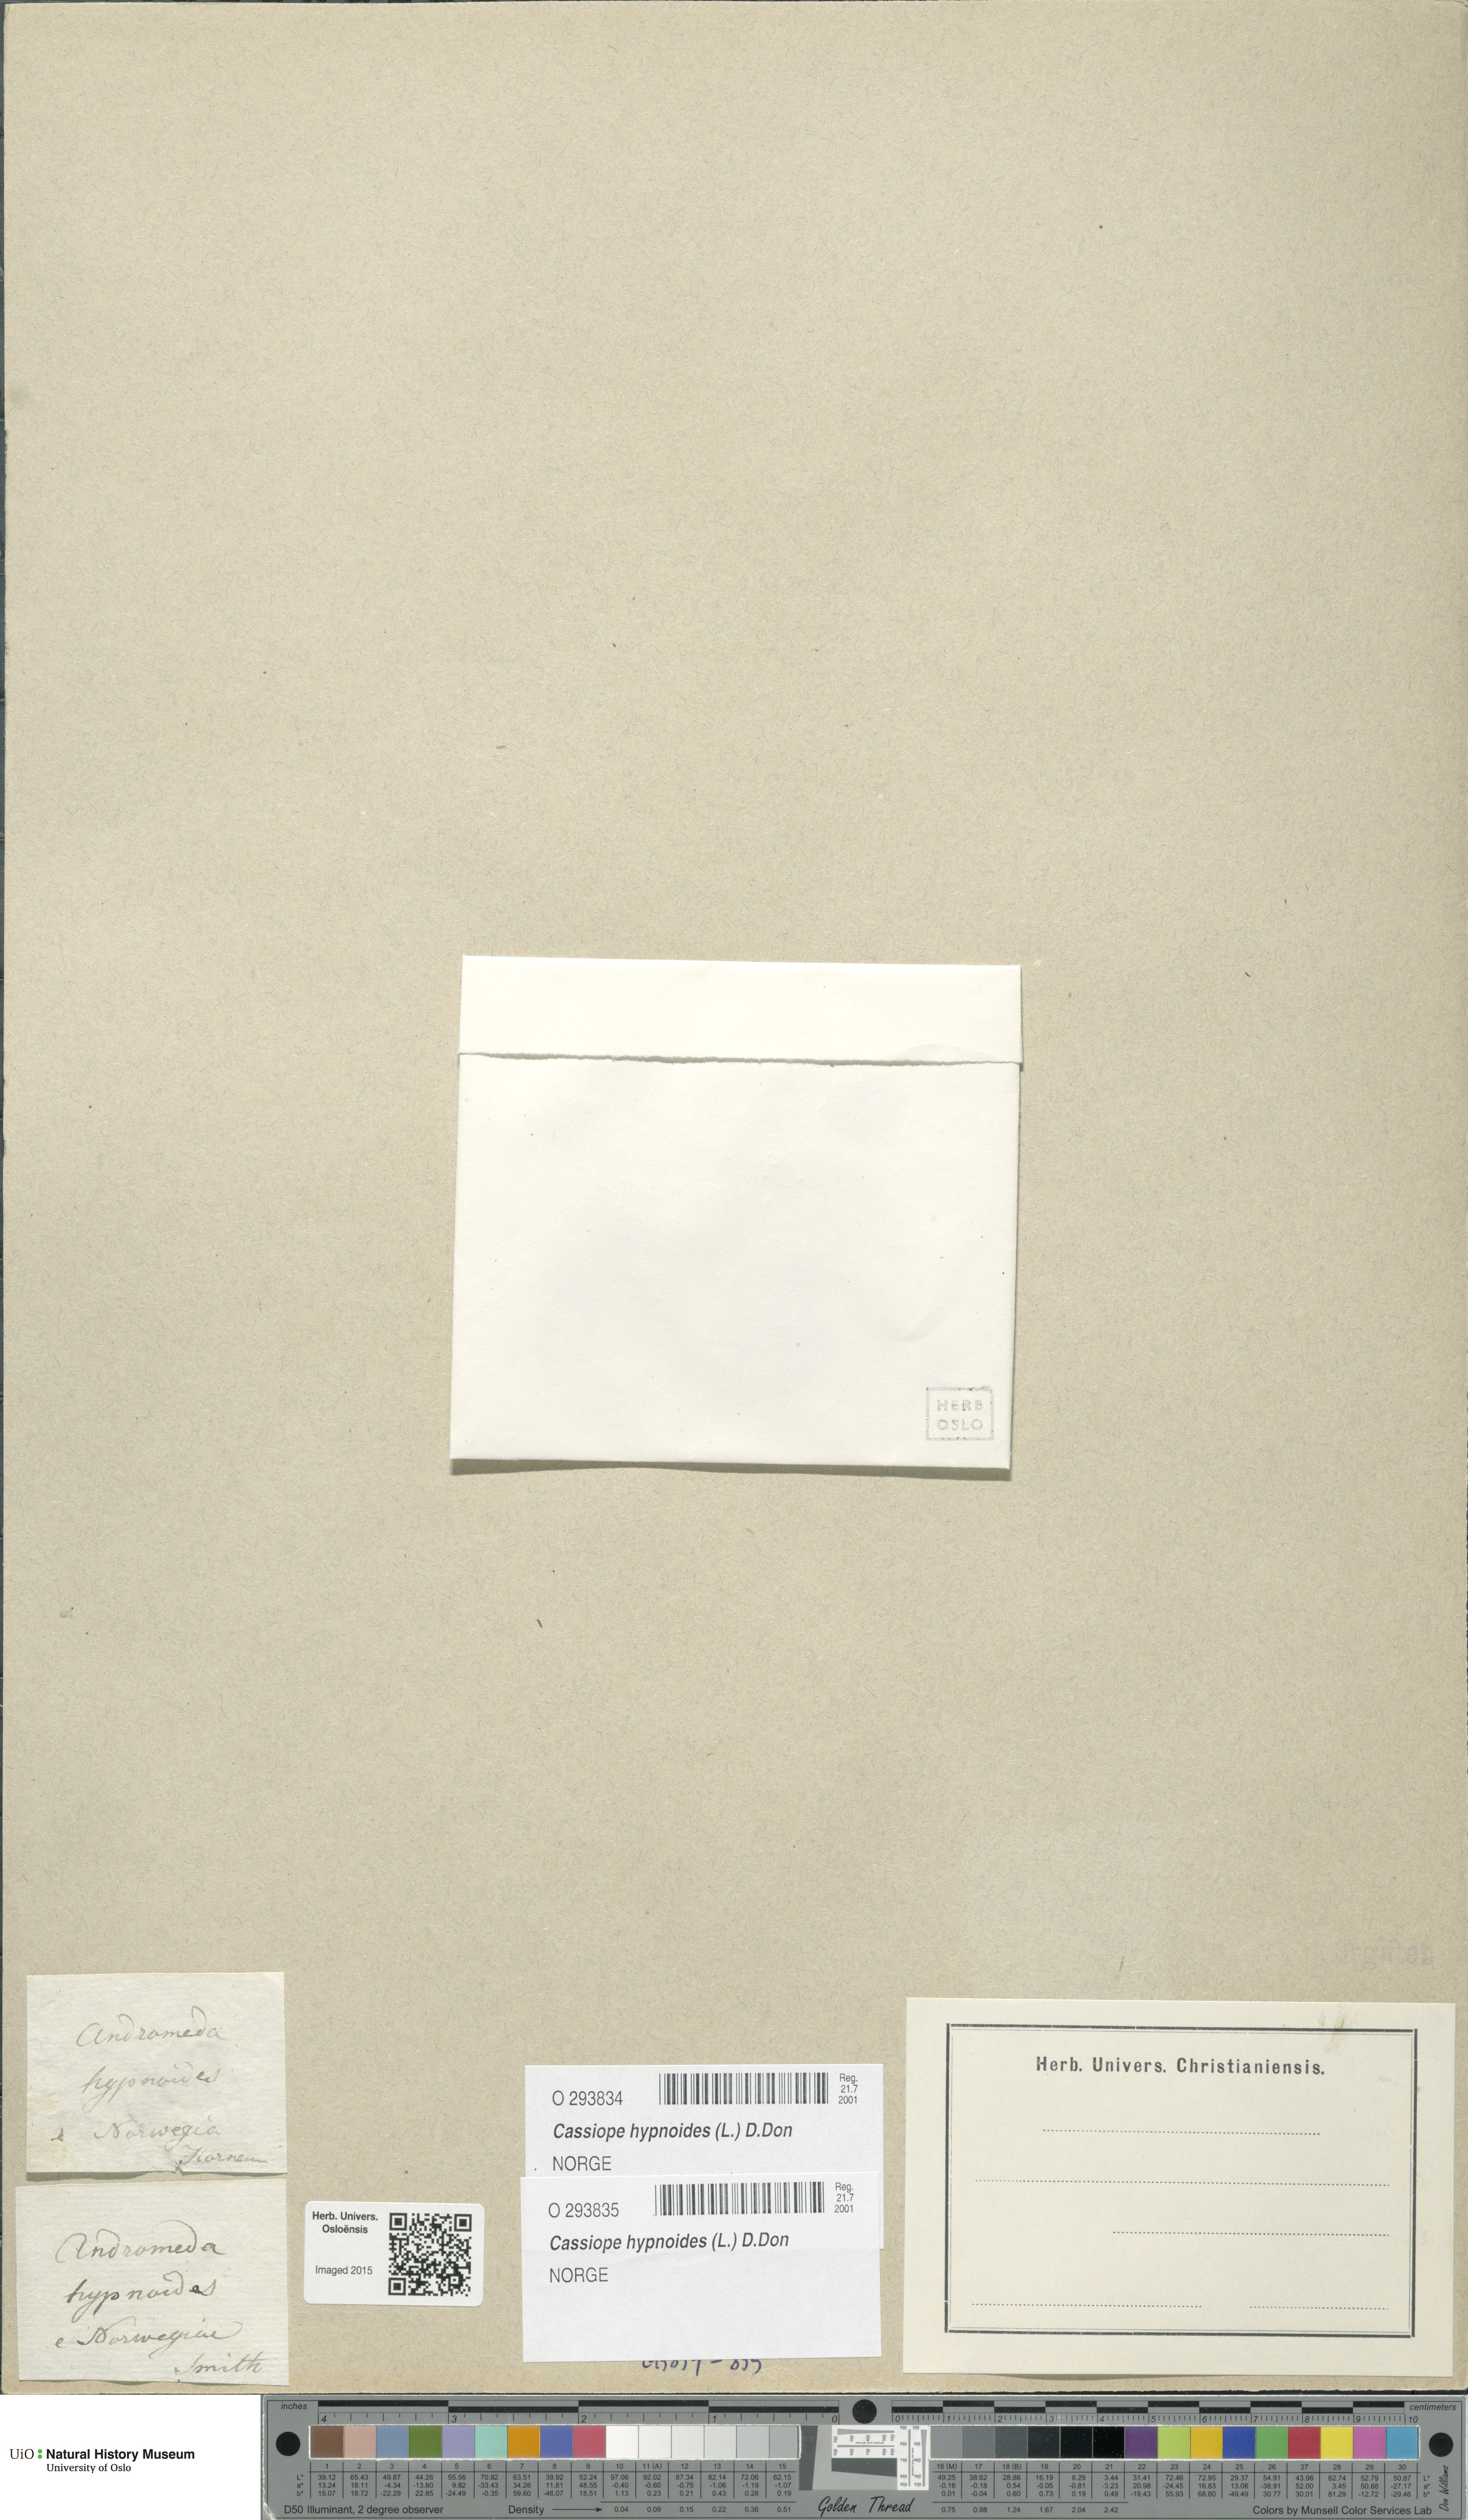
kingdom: Plantae
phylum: Tracheophyta
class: Magnoliopsida
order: Ericales
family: Ericaceae
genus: Harrimanella
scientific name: Harrimanella hypnoides
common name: Moss bell heather
